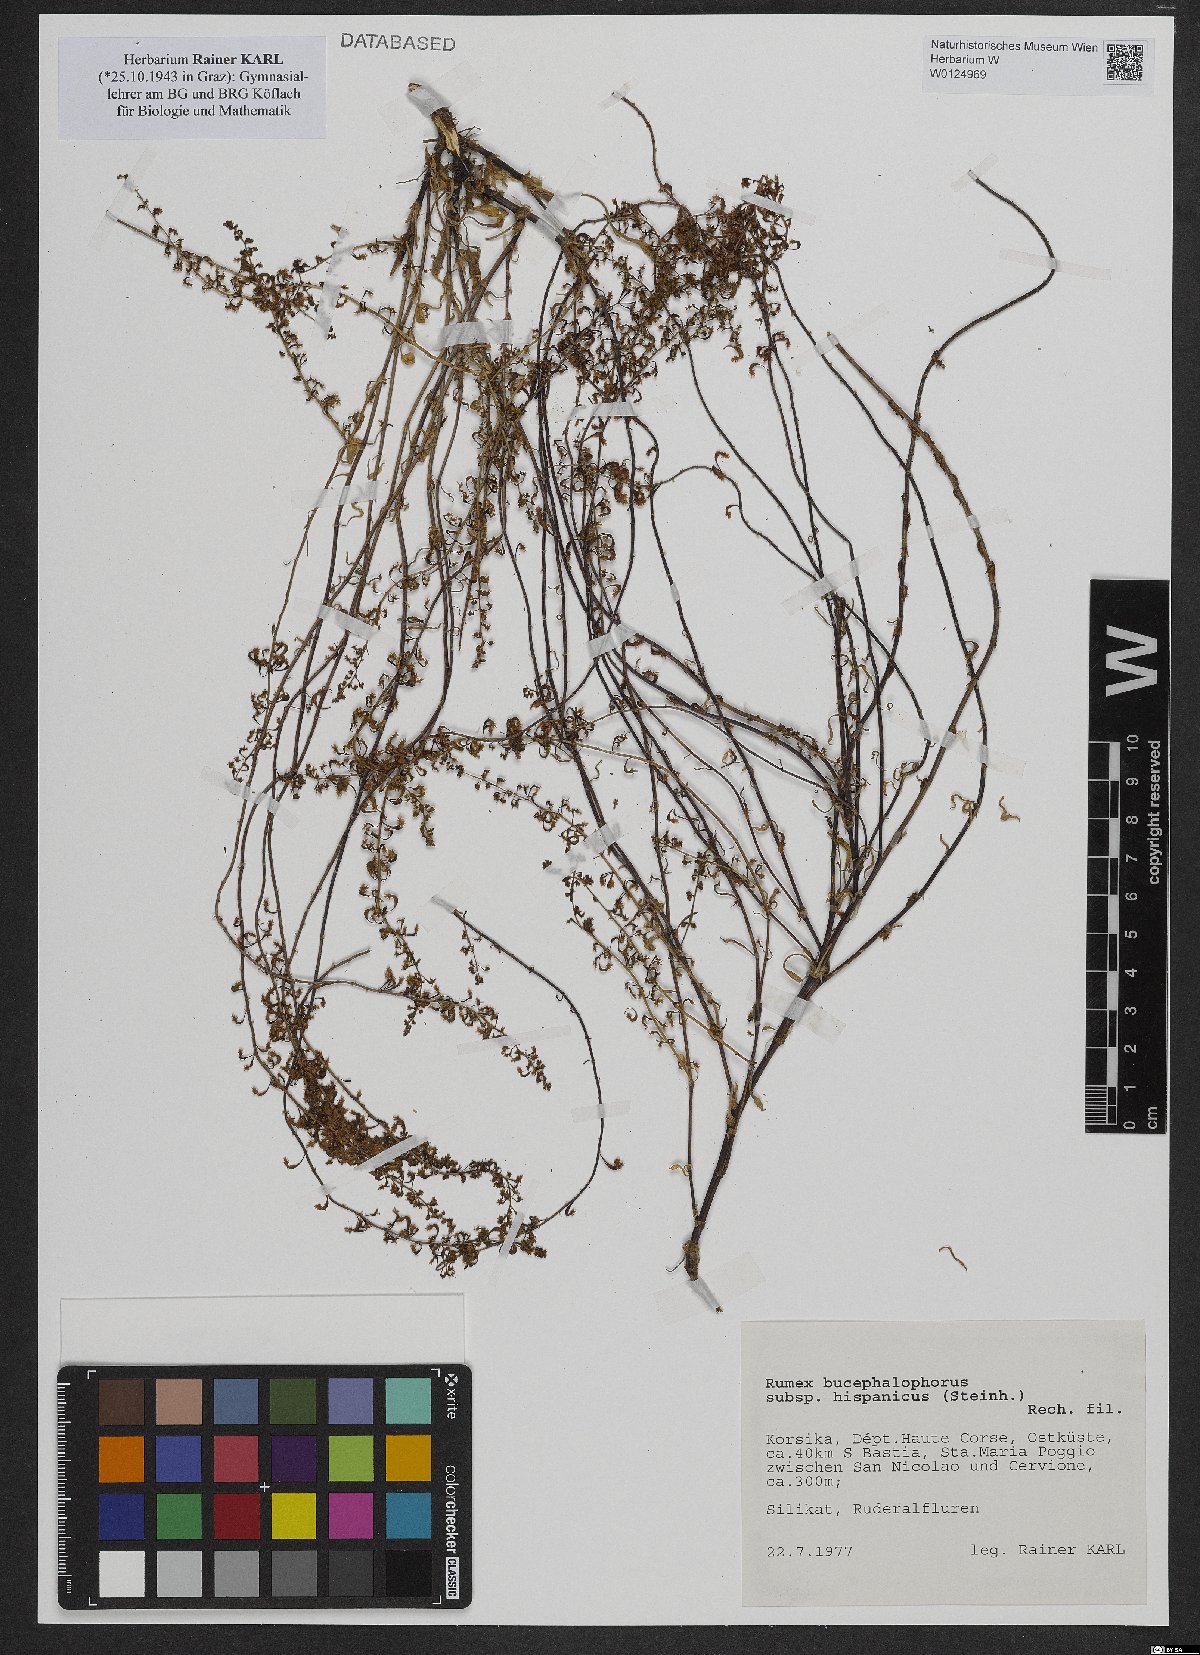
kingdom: Plantae
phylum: Tracheophyta
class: Magnoliopsida
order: Caryophyllales
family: Polygonaceae
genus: Rumex
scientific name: Rumex bucephalophorus
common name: Red dock
